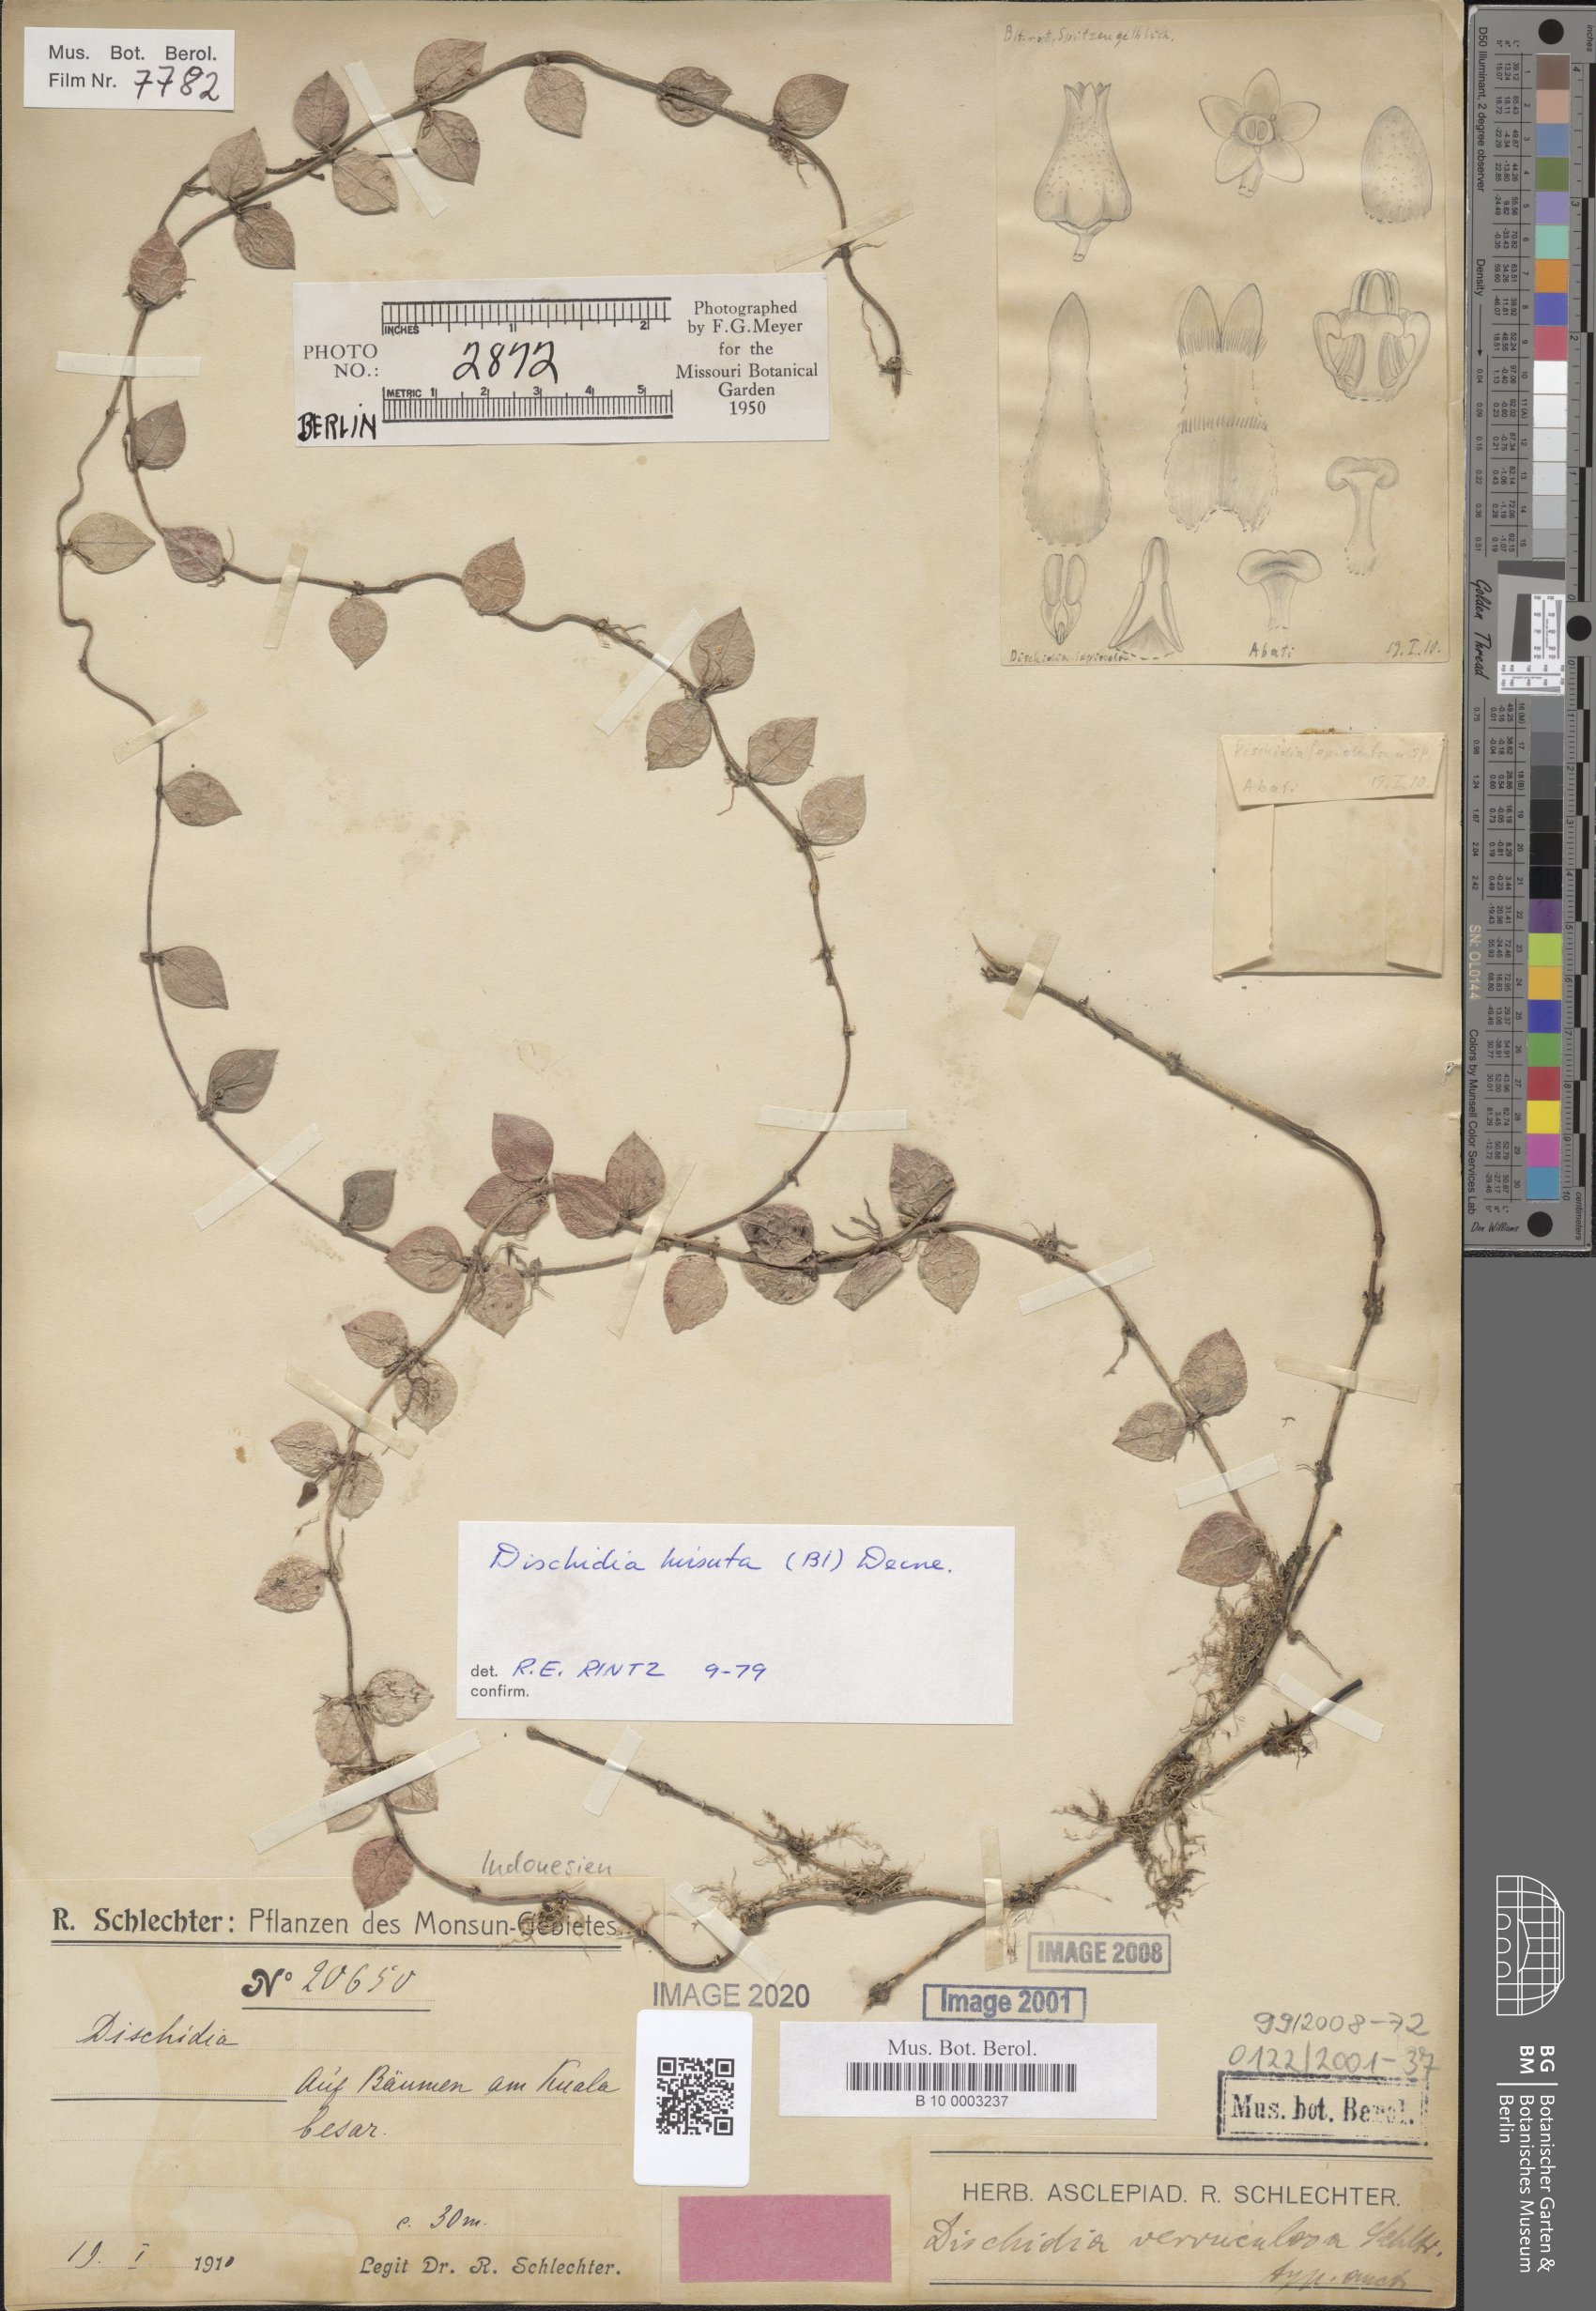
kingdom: Plantae
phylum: Tracheophyta
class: Magnoliopsida
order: Gentianales
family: Apocynaceae
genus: Dischidia
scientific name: Dischidia hirsuta
